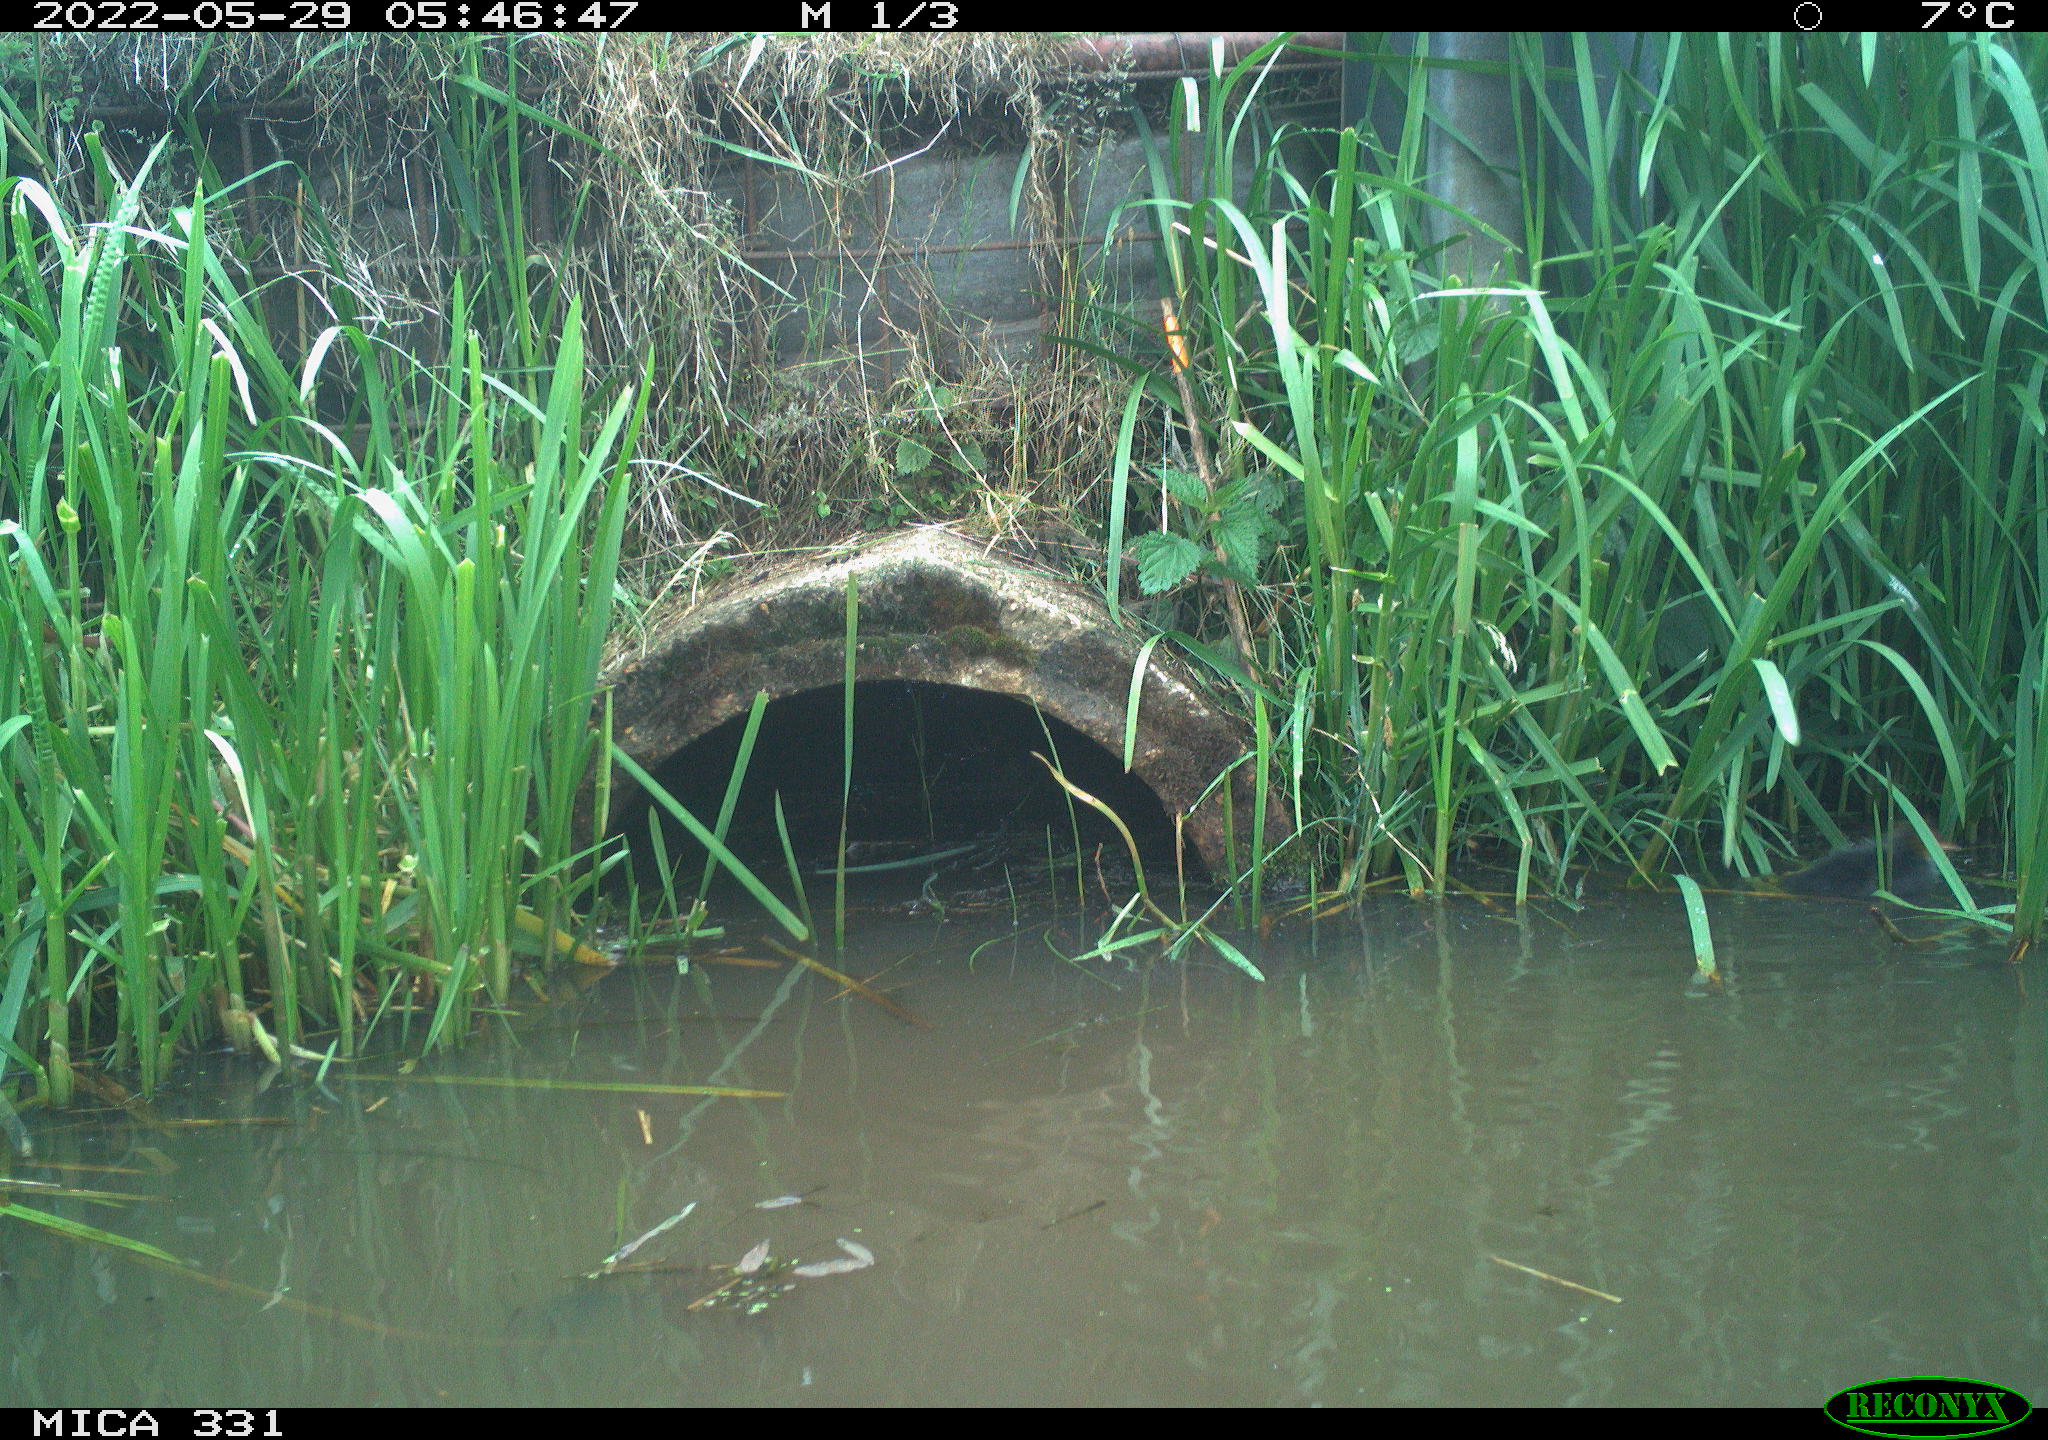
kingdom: Animalia
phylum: Chordata
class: Aves
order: Gruiformes
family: Rallidae
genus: Fulica
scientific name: Fulica atra
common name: Eurasian coot
